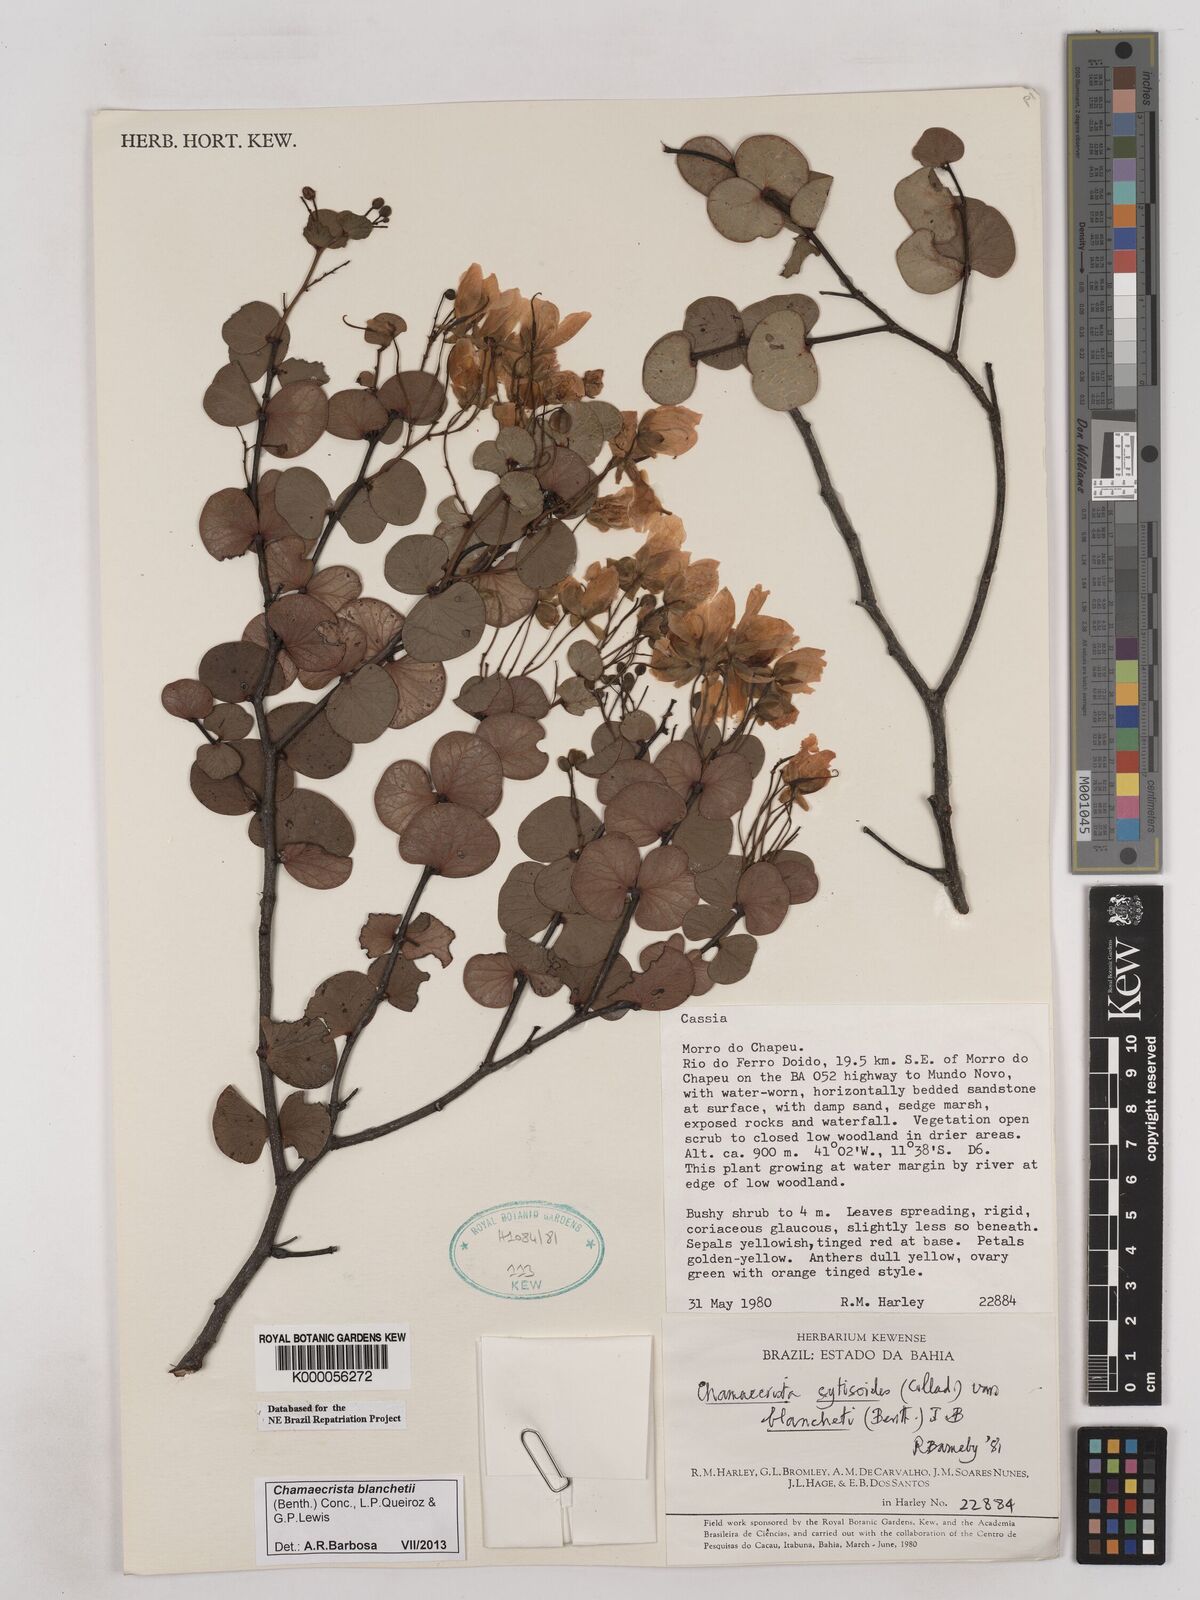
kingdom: Plantae
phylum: Tracheophyta
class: Magnoliopsida
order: Fabales
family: Fabaceae
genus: Chamaecrista
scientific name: Chamaecrista cytisoides
